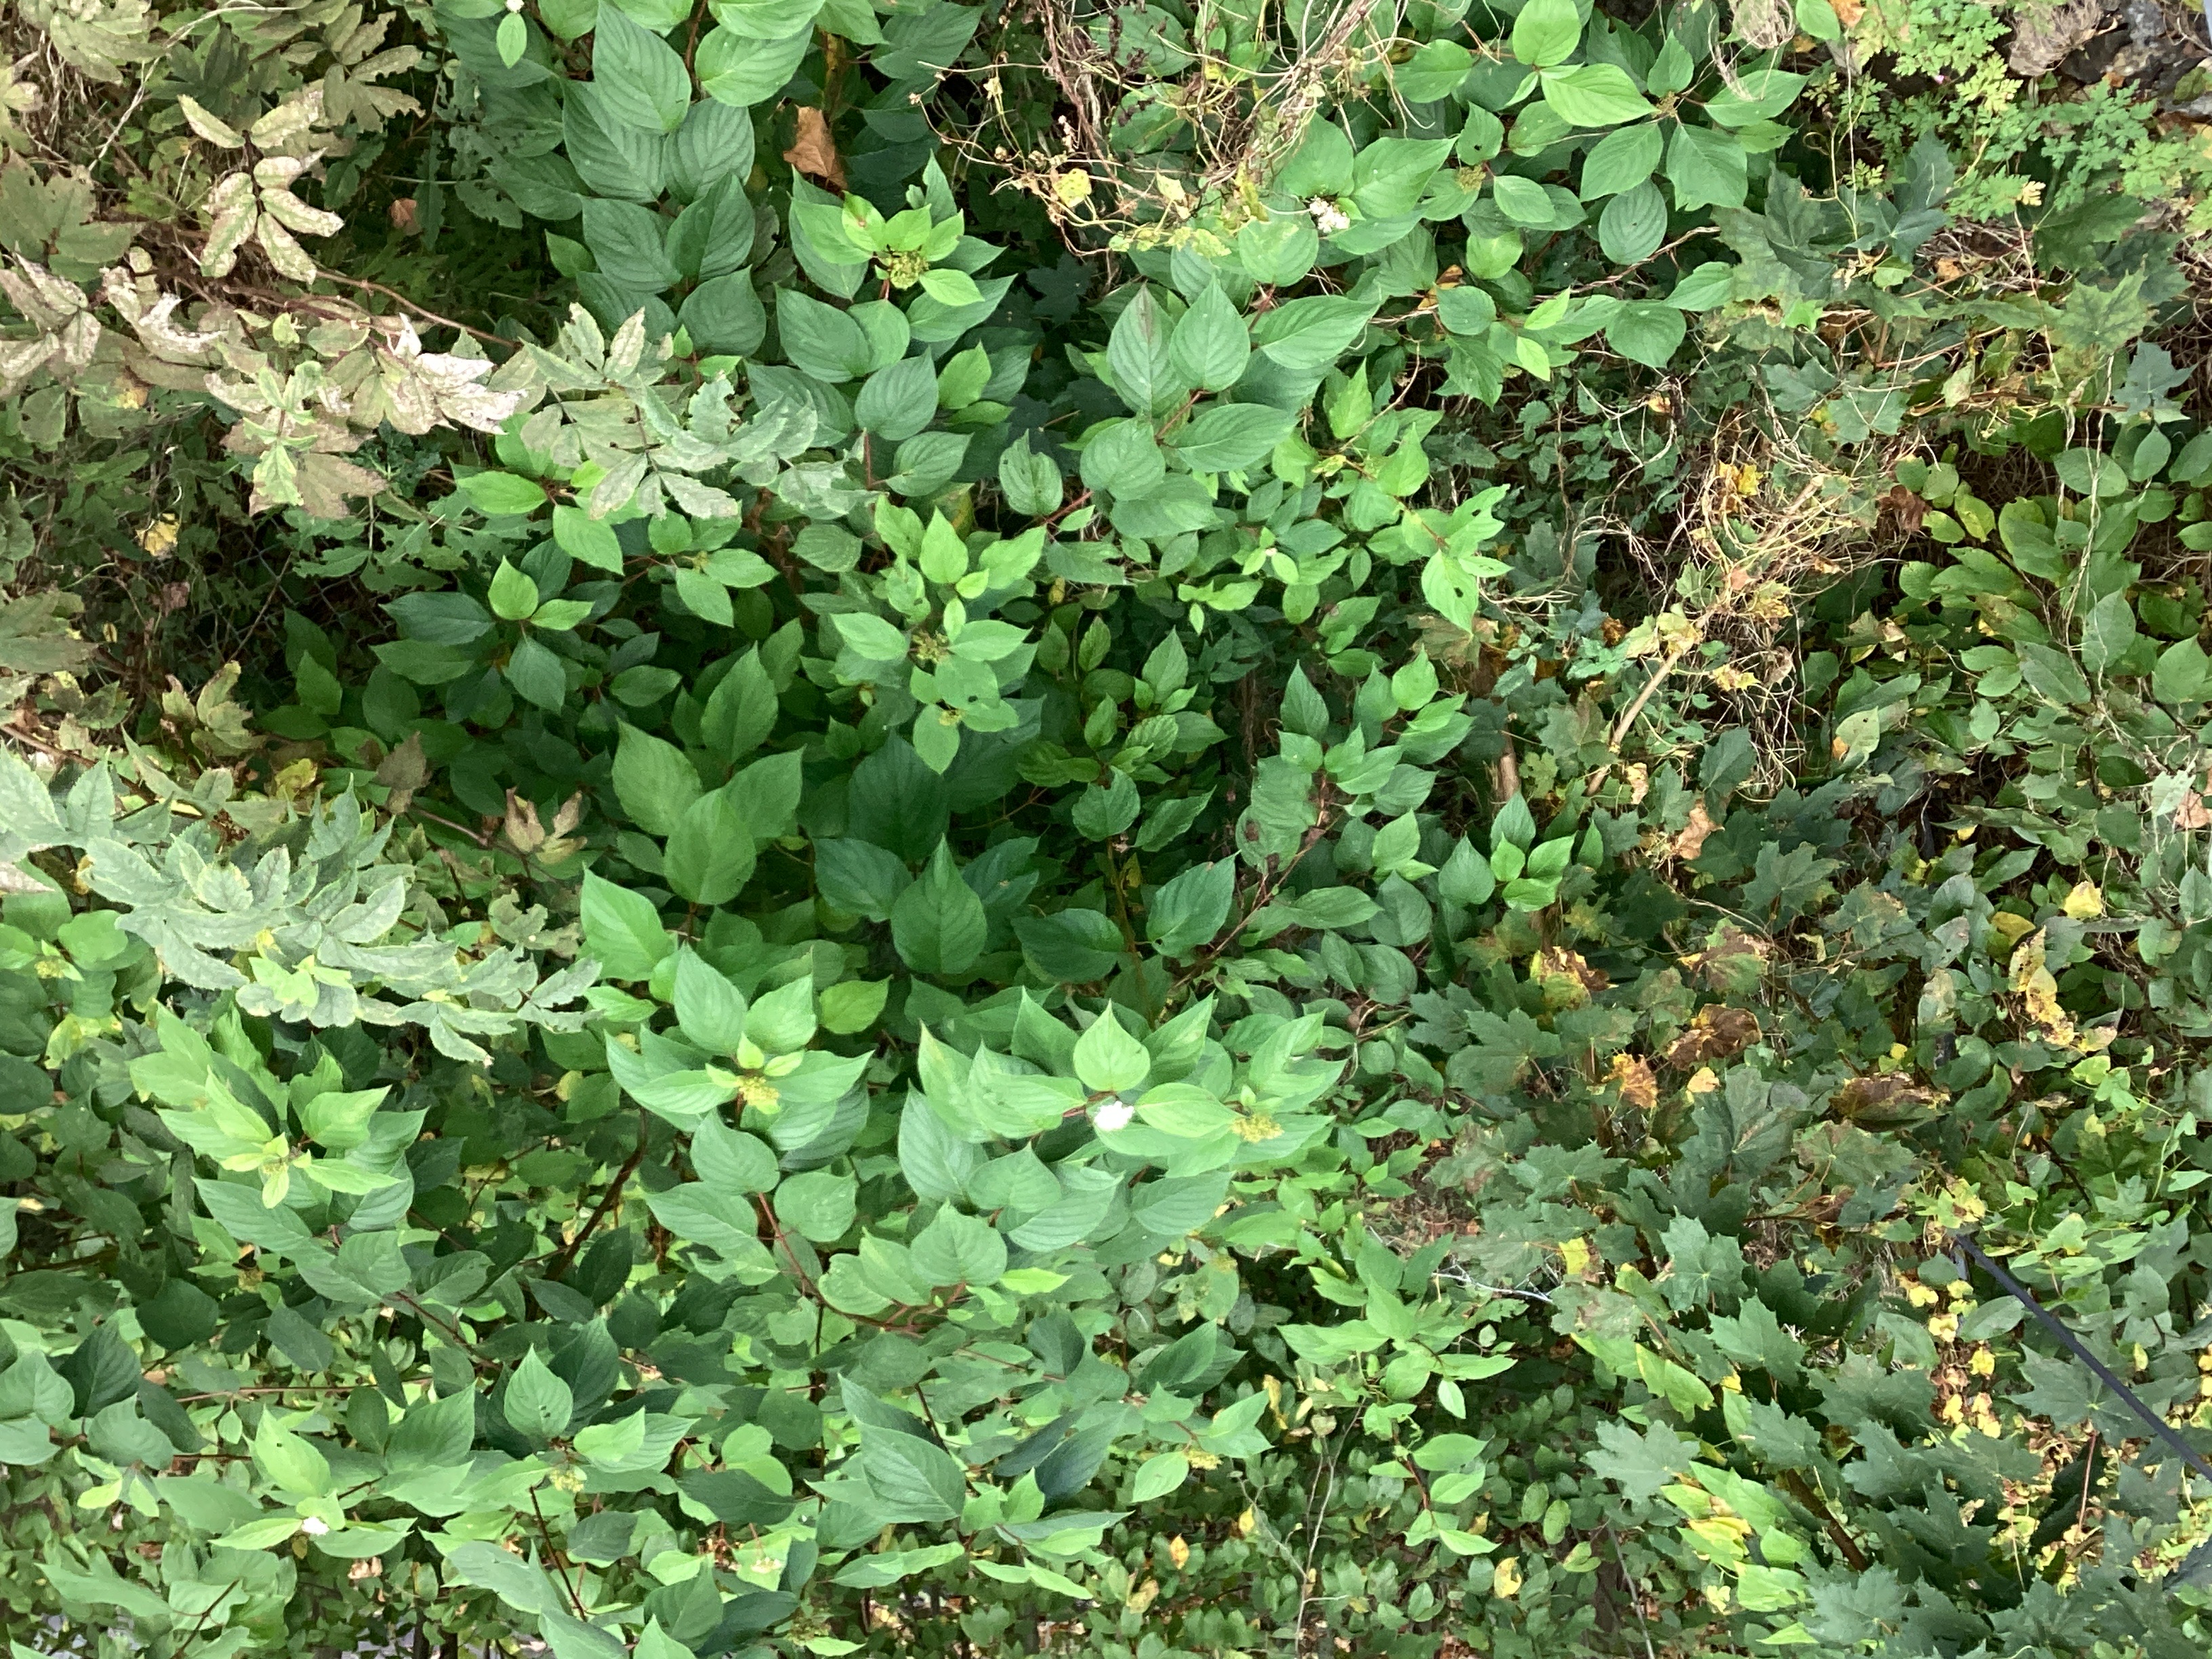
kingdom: Plantae
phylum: Tracheophyta
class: Magnoliopsida
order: Cornales
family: Cornaceae
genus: Cornus
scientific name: Cornus alba
